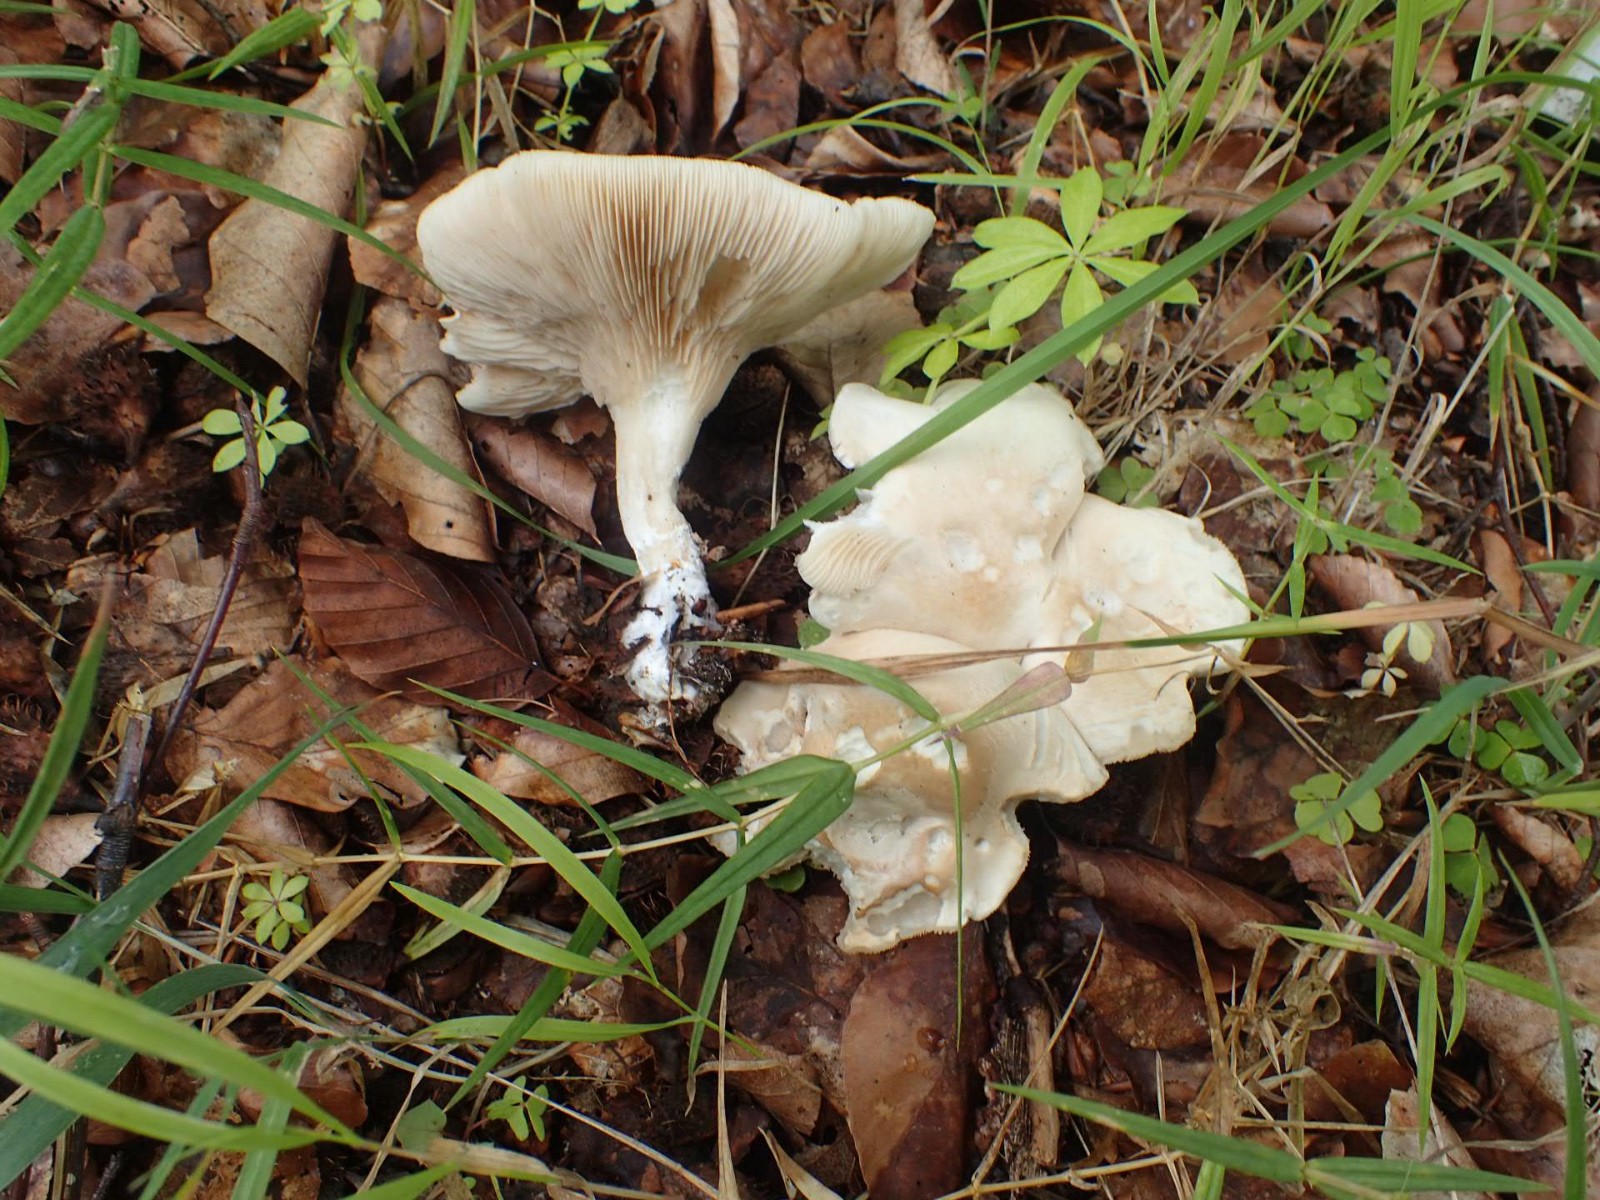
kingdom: Fungi
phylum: Basidiomycota
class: Agaricomycetes
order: Agaricales
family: Entolomataceae
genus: Clitopilus
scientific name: Clitopilus prunulus
